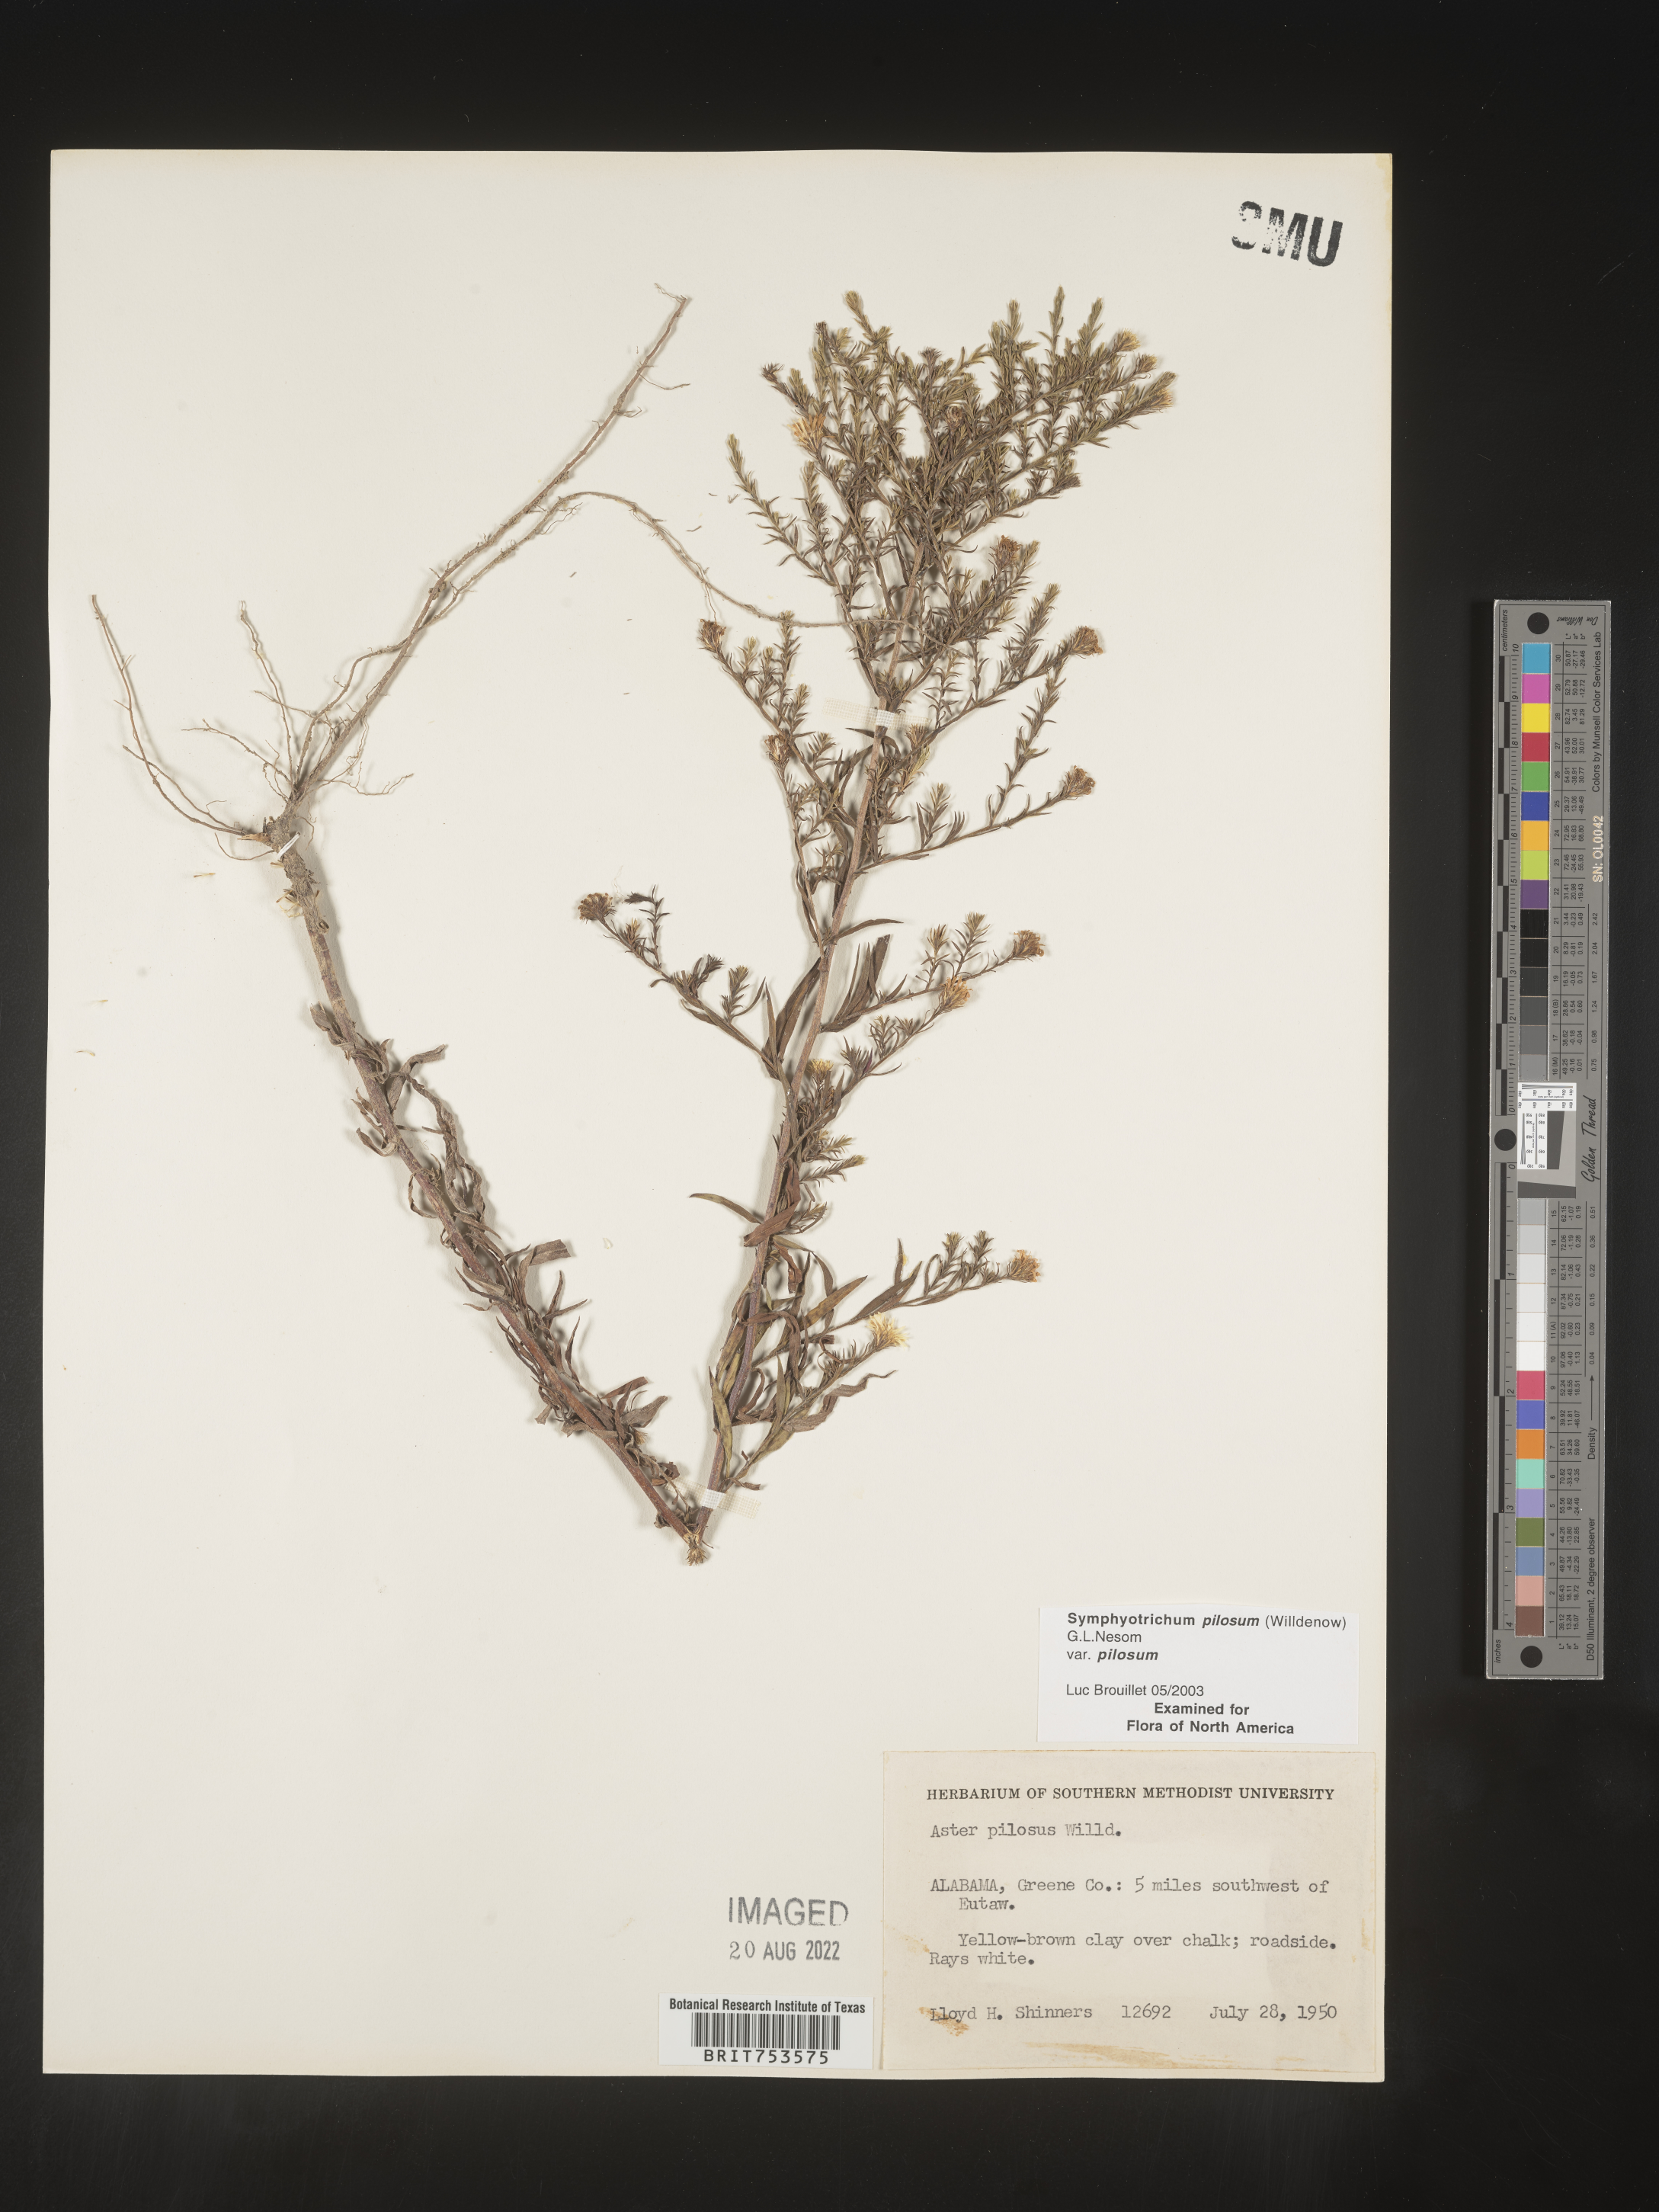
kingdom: Plantae
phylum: Tracheophyta
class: Magnoliopsida
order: Asterales
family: Asteraceae
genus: Symphyotrichum
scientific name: Symphyotrichum pilosum
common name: Awl aster
